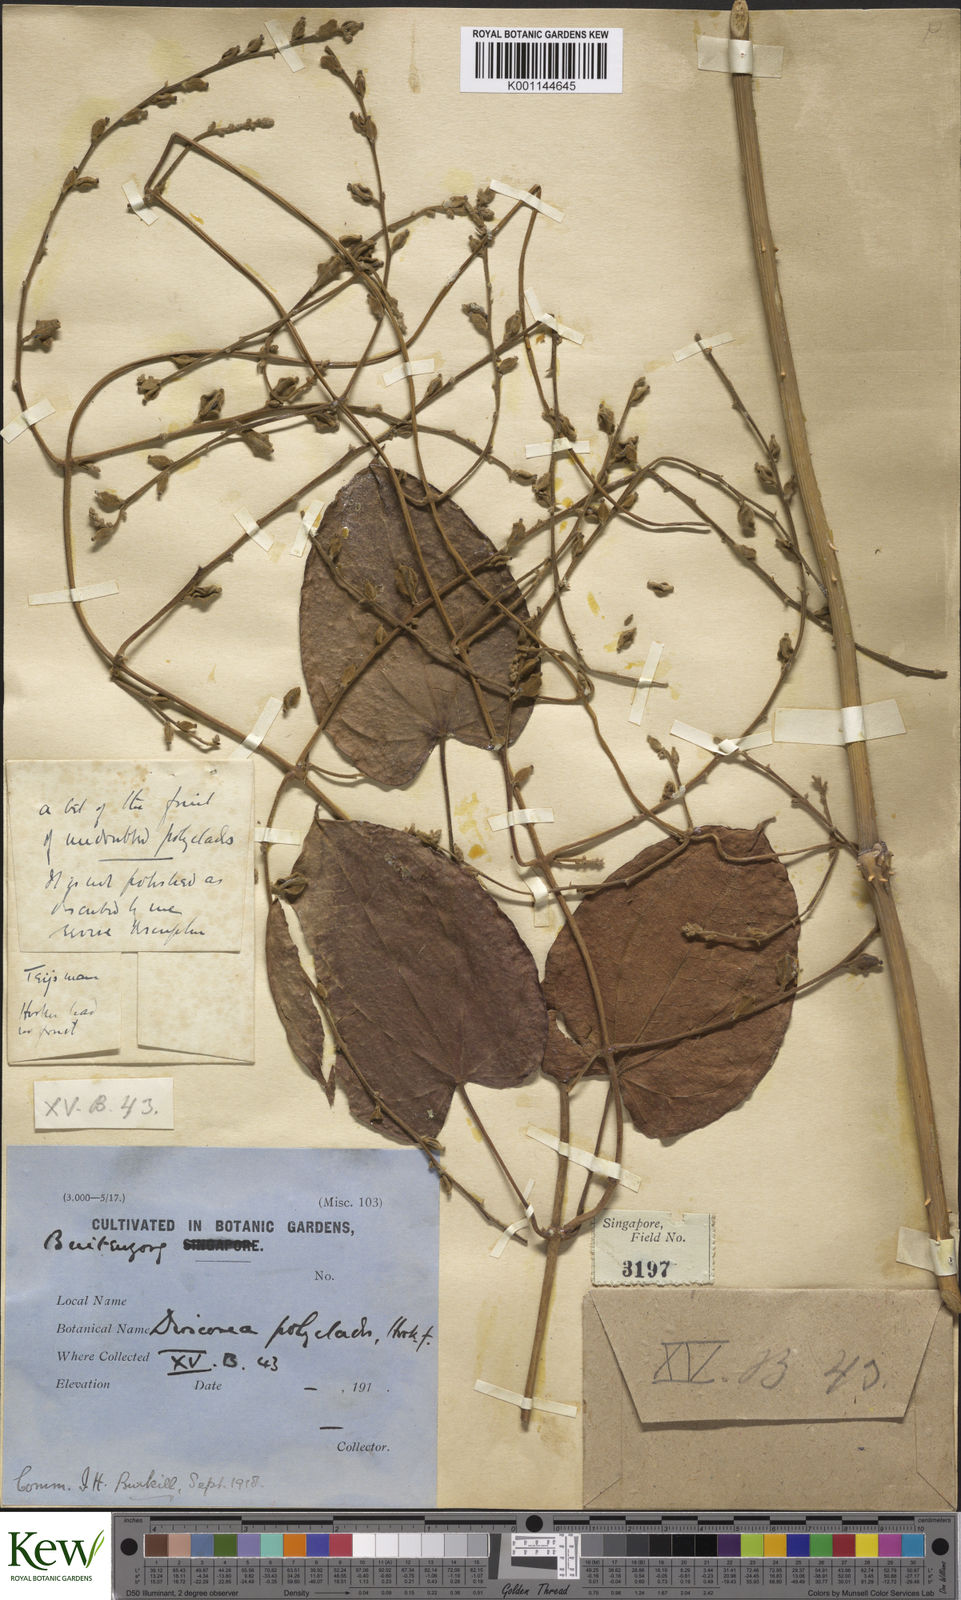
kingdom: Plantae
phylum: Tracheophyta
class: Liliopsida
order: Dioscoreales
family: Dioscoreaceae
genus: Dioscorea
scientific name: Dioscorea polyclados
